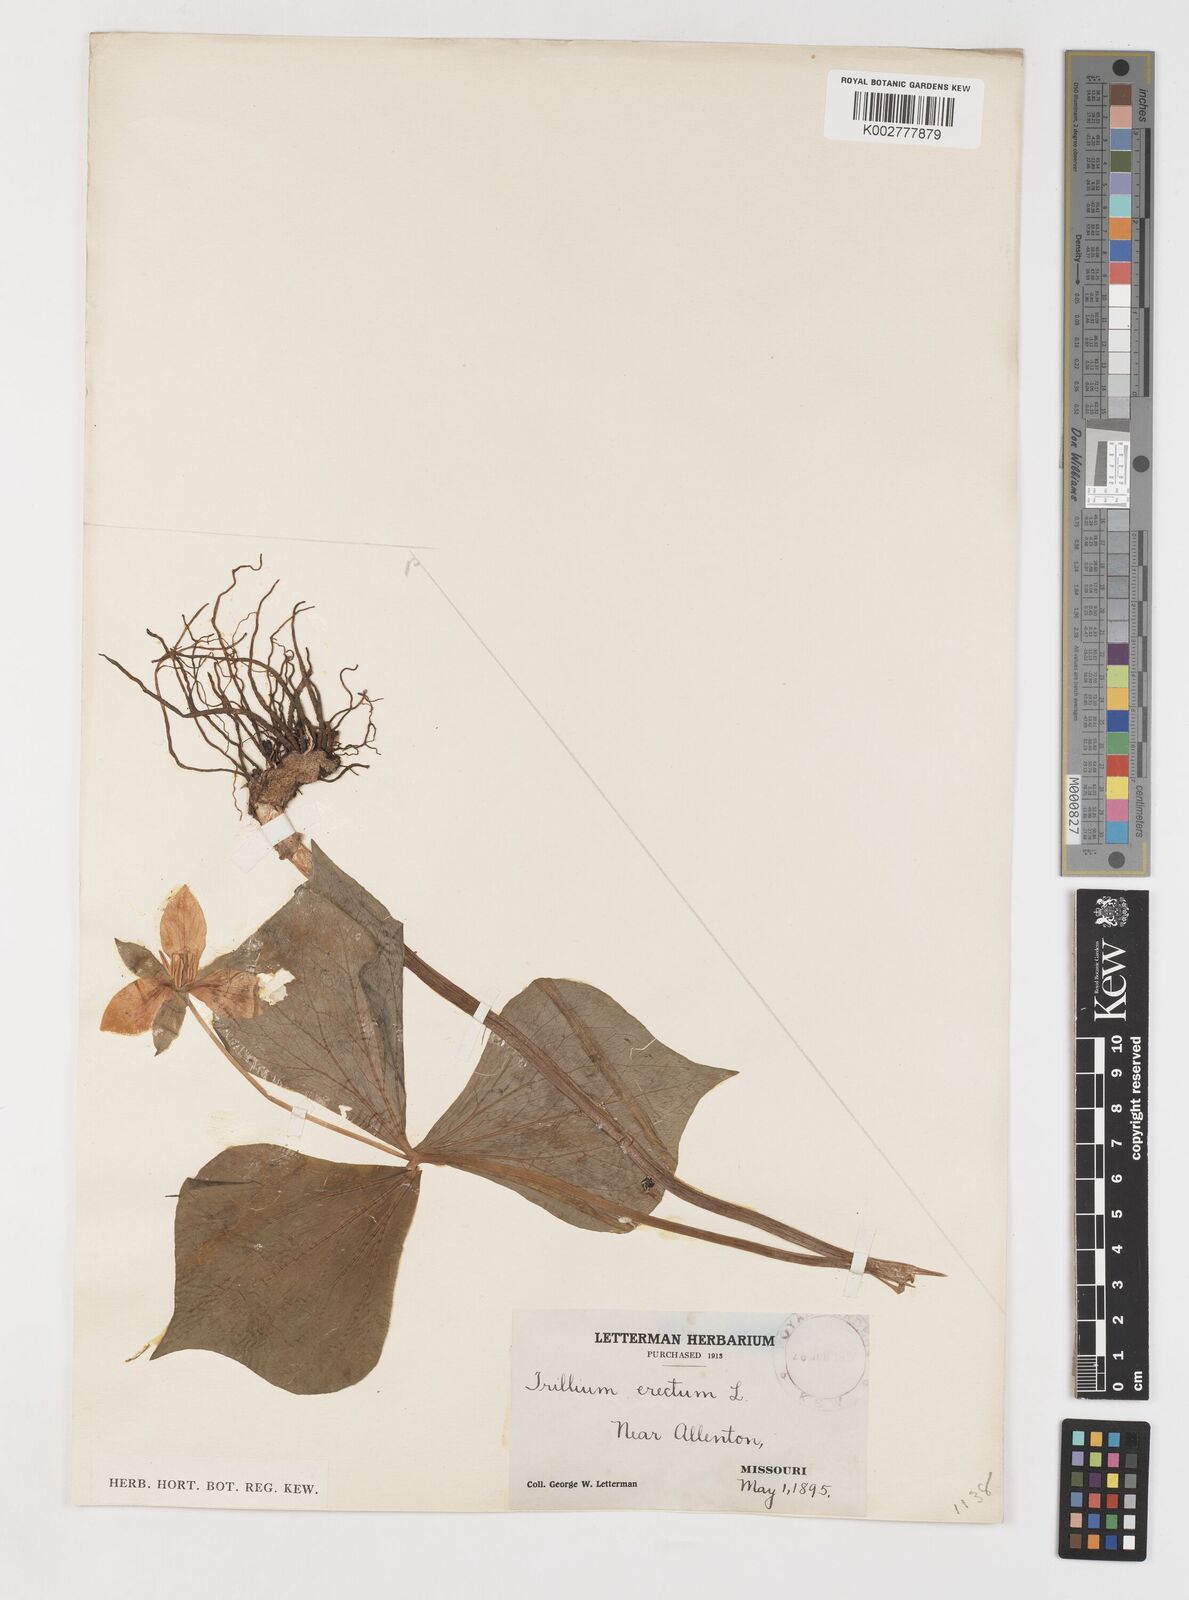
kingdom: Plantae
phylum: Tracheophyta
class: Liliopsida
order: Liliales
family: Melanthiaceae
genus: Trillium
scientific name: Trillium erectum
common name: Purple trillium
